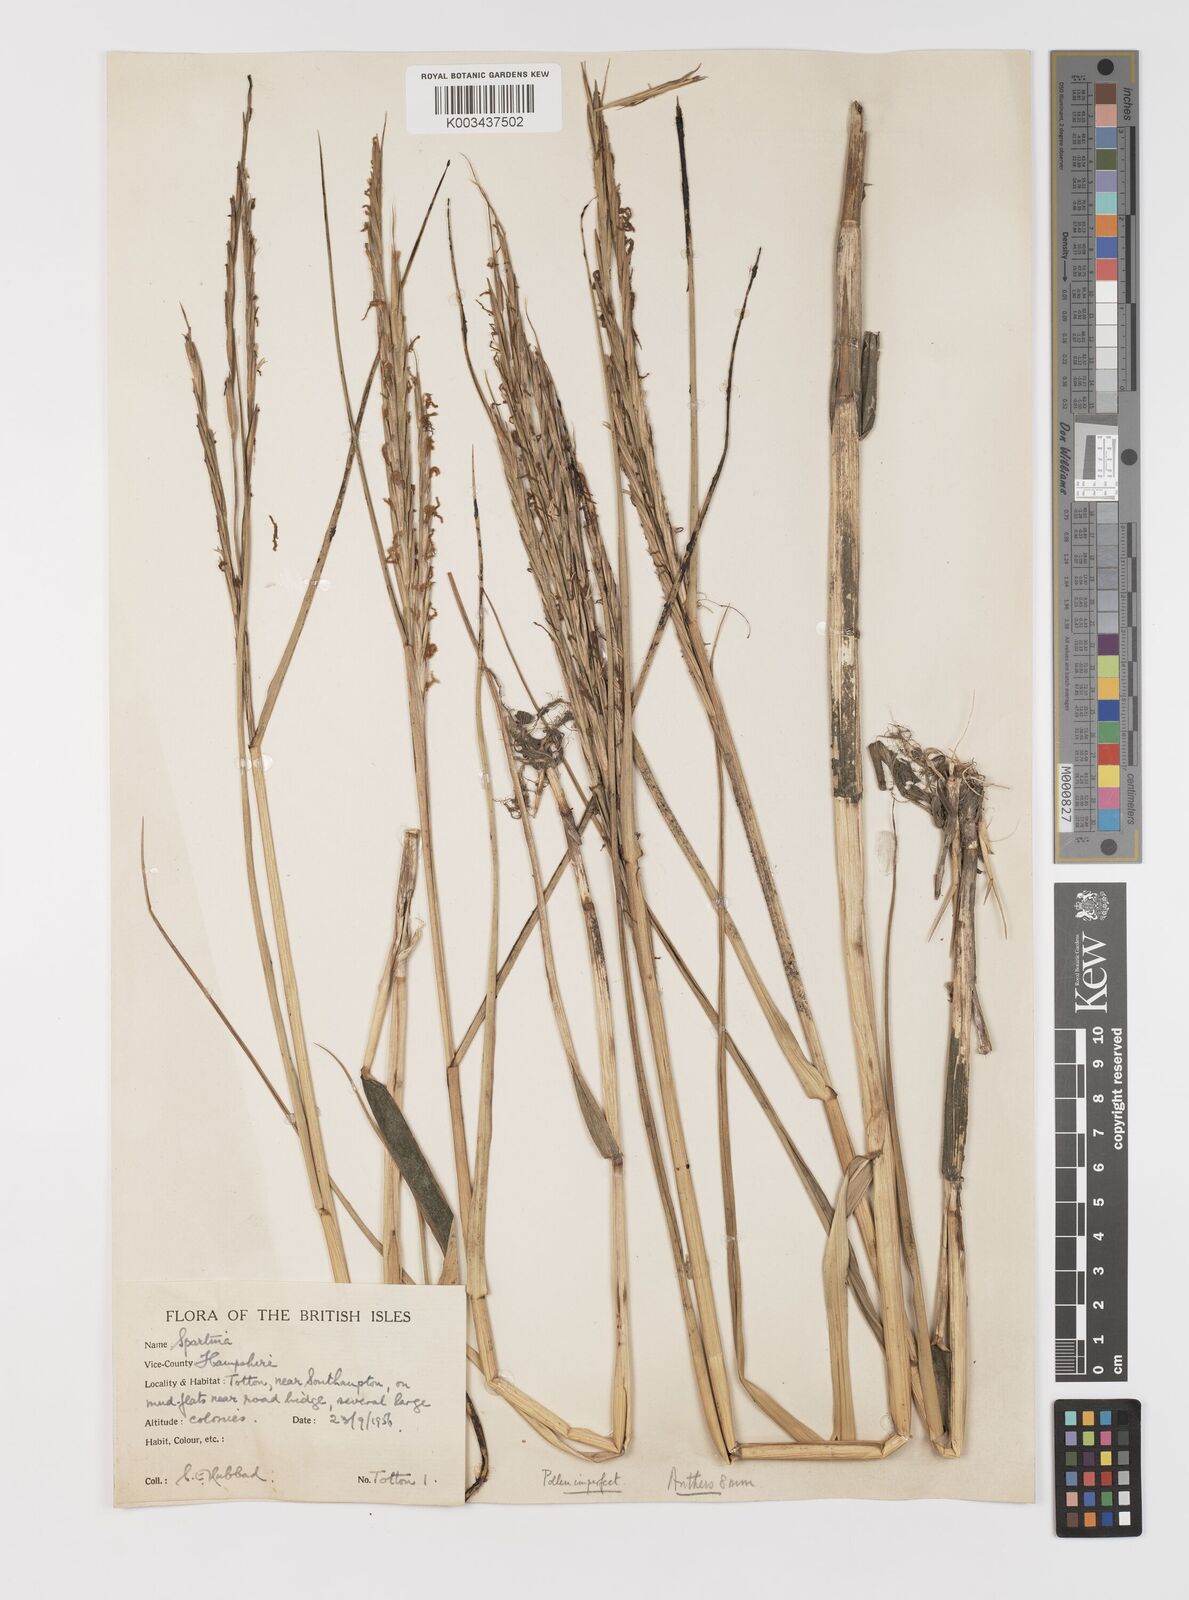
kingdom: Plantae
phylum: Tracheophyta
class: Liliopsida
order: Poales
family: Poaceae
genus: Sporobolus
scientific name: Sporobolus anglicus
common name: English cordgrass
